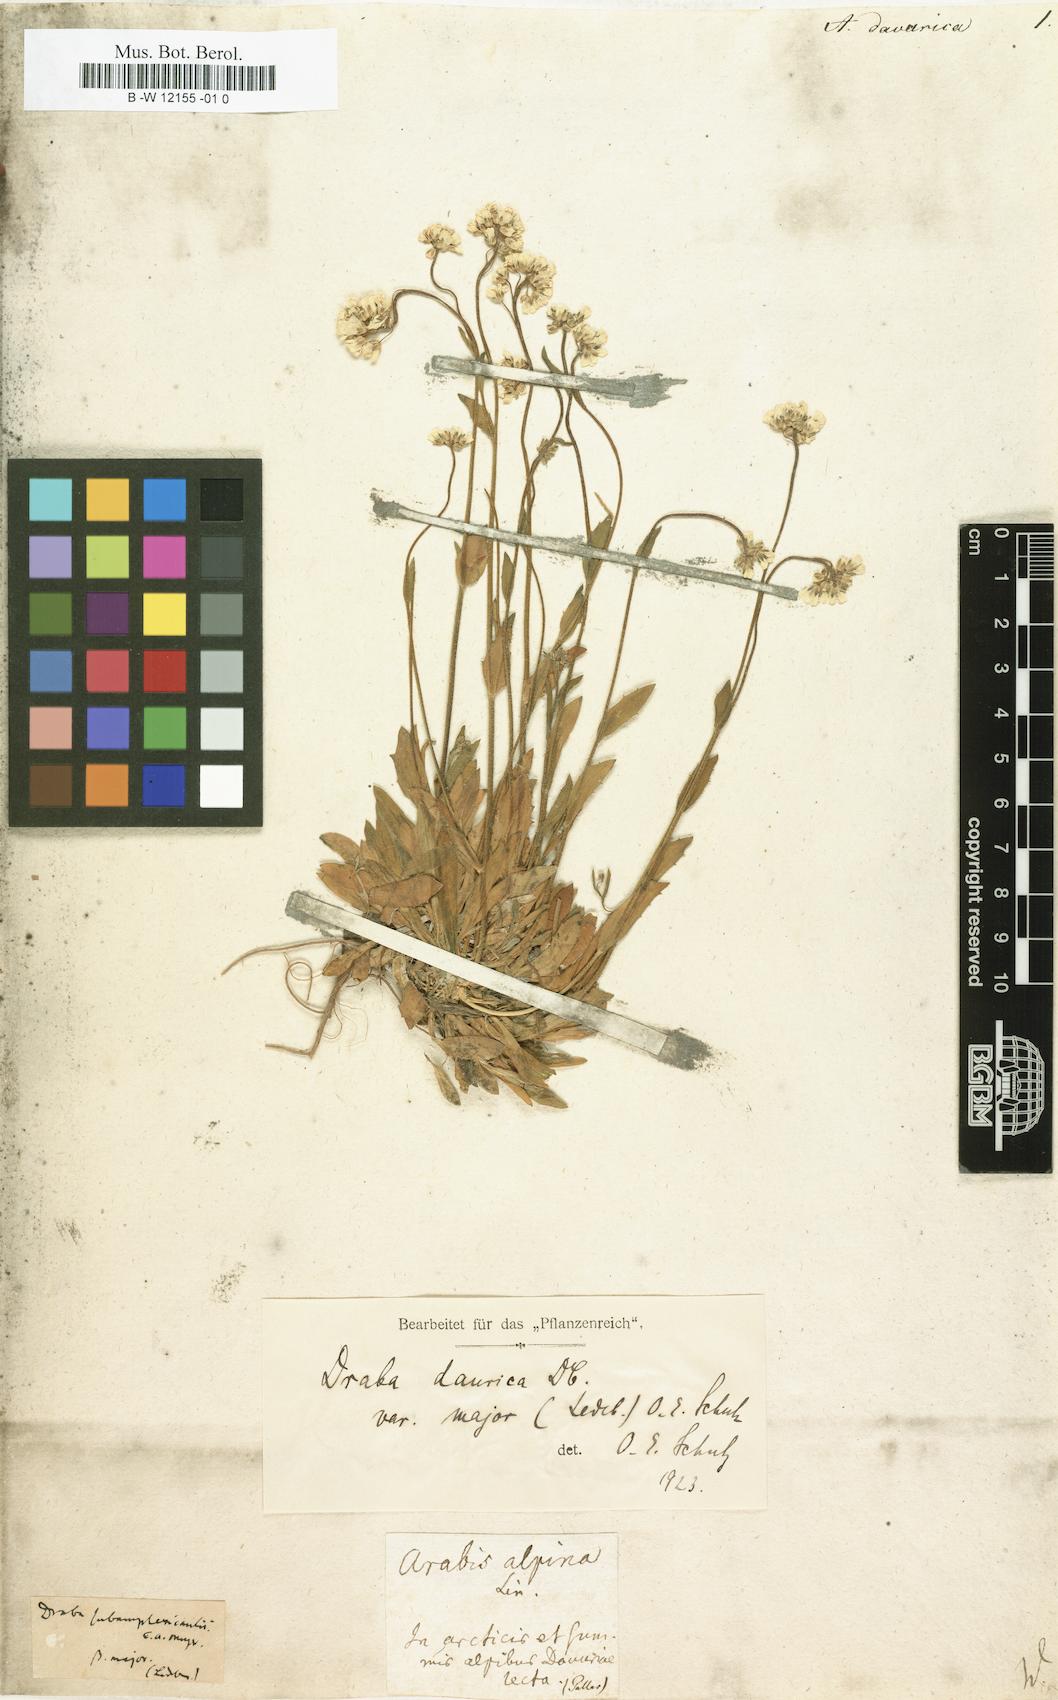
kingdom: Plantae
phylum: Tracheophyta
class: Magnoliopsida
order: Brassicales
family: Brassicaceae
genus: Arabis
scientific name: Arabis
